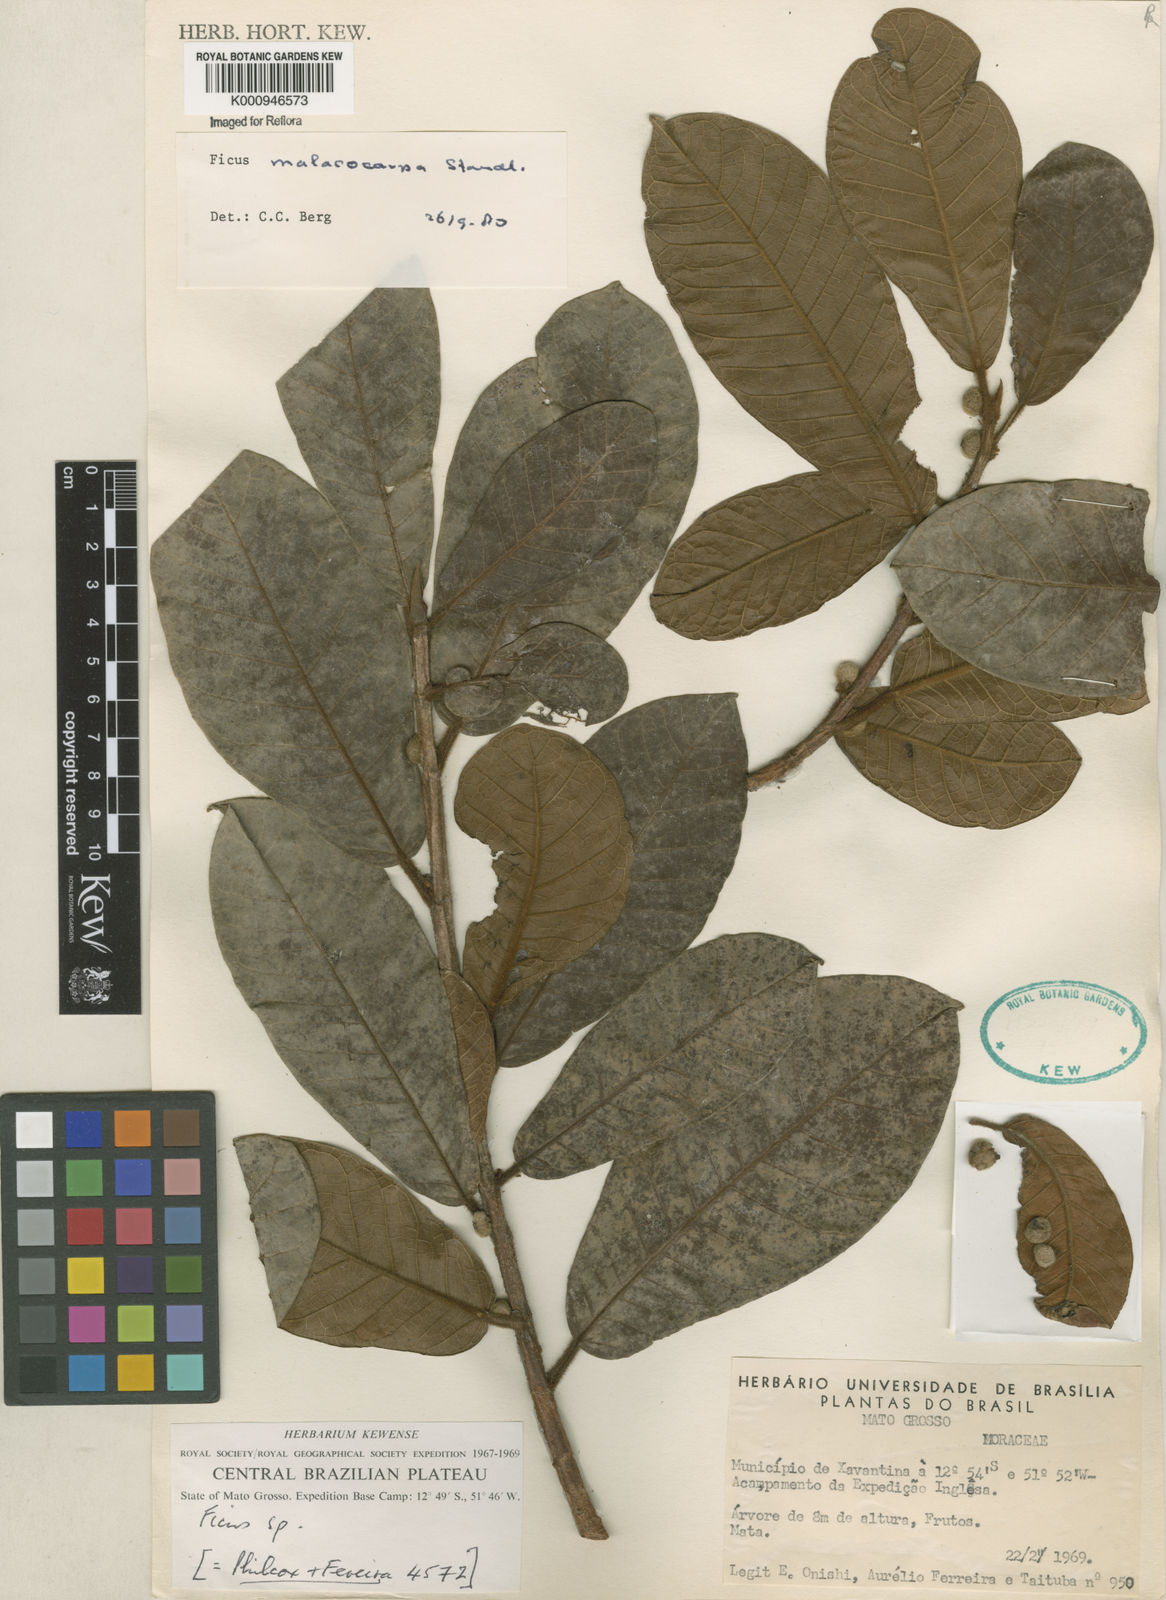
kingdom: Plantae
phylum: Tracheophyta
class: Magnoliopsida
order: Rosales
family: Moraceae
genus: Ficus
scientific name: Ficus popenoei
